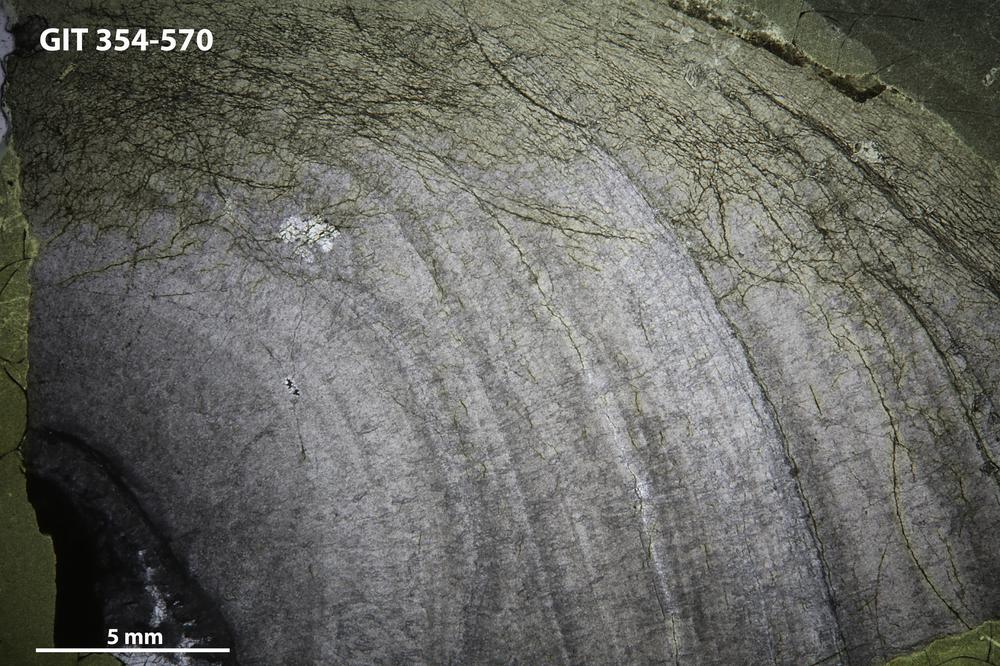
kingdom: Animalia
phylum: Porifera
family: Ecclimadictyidae
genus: Ecclimadictyon
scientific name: Ecclimadictyon
